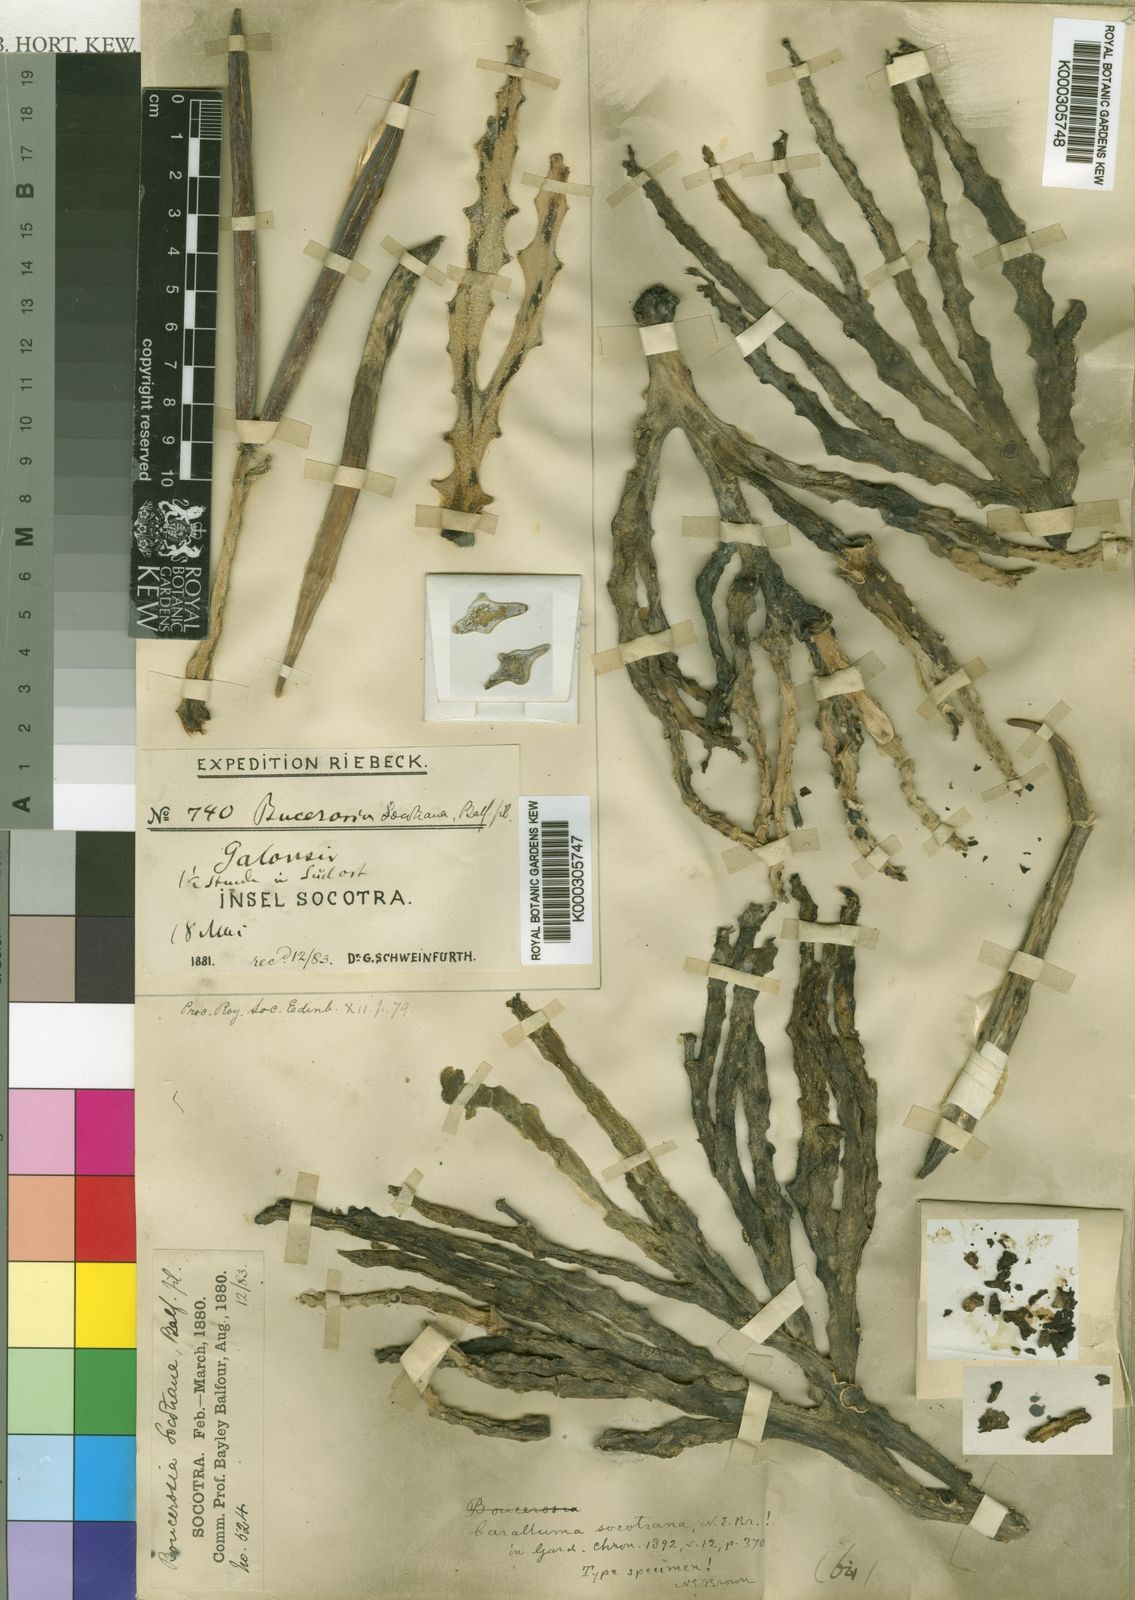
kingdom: Plantae
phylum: Tracheophyta
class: Magnoliopsida
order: Gentianales
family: Apocynaceae
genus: Ceropegia
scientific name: Ceropegia socotrana
